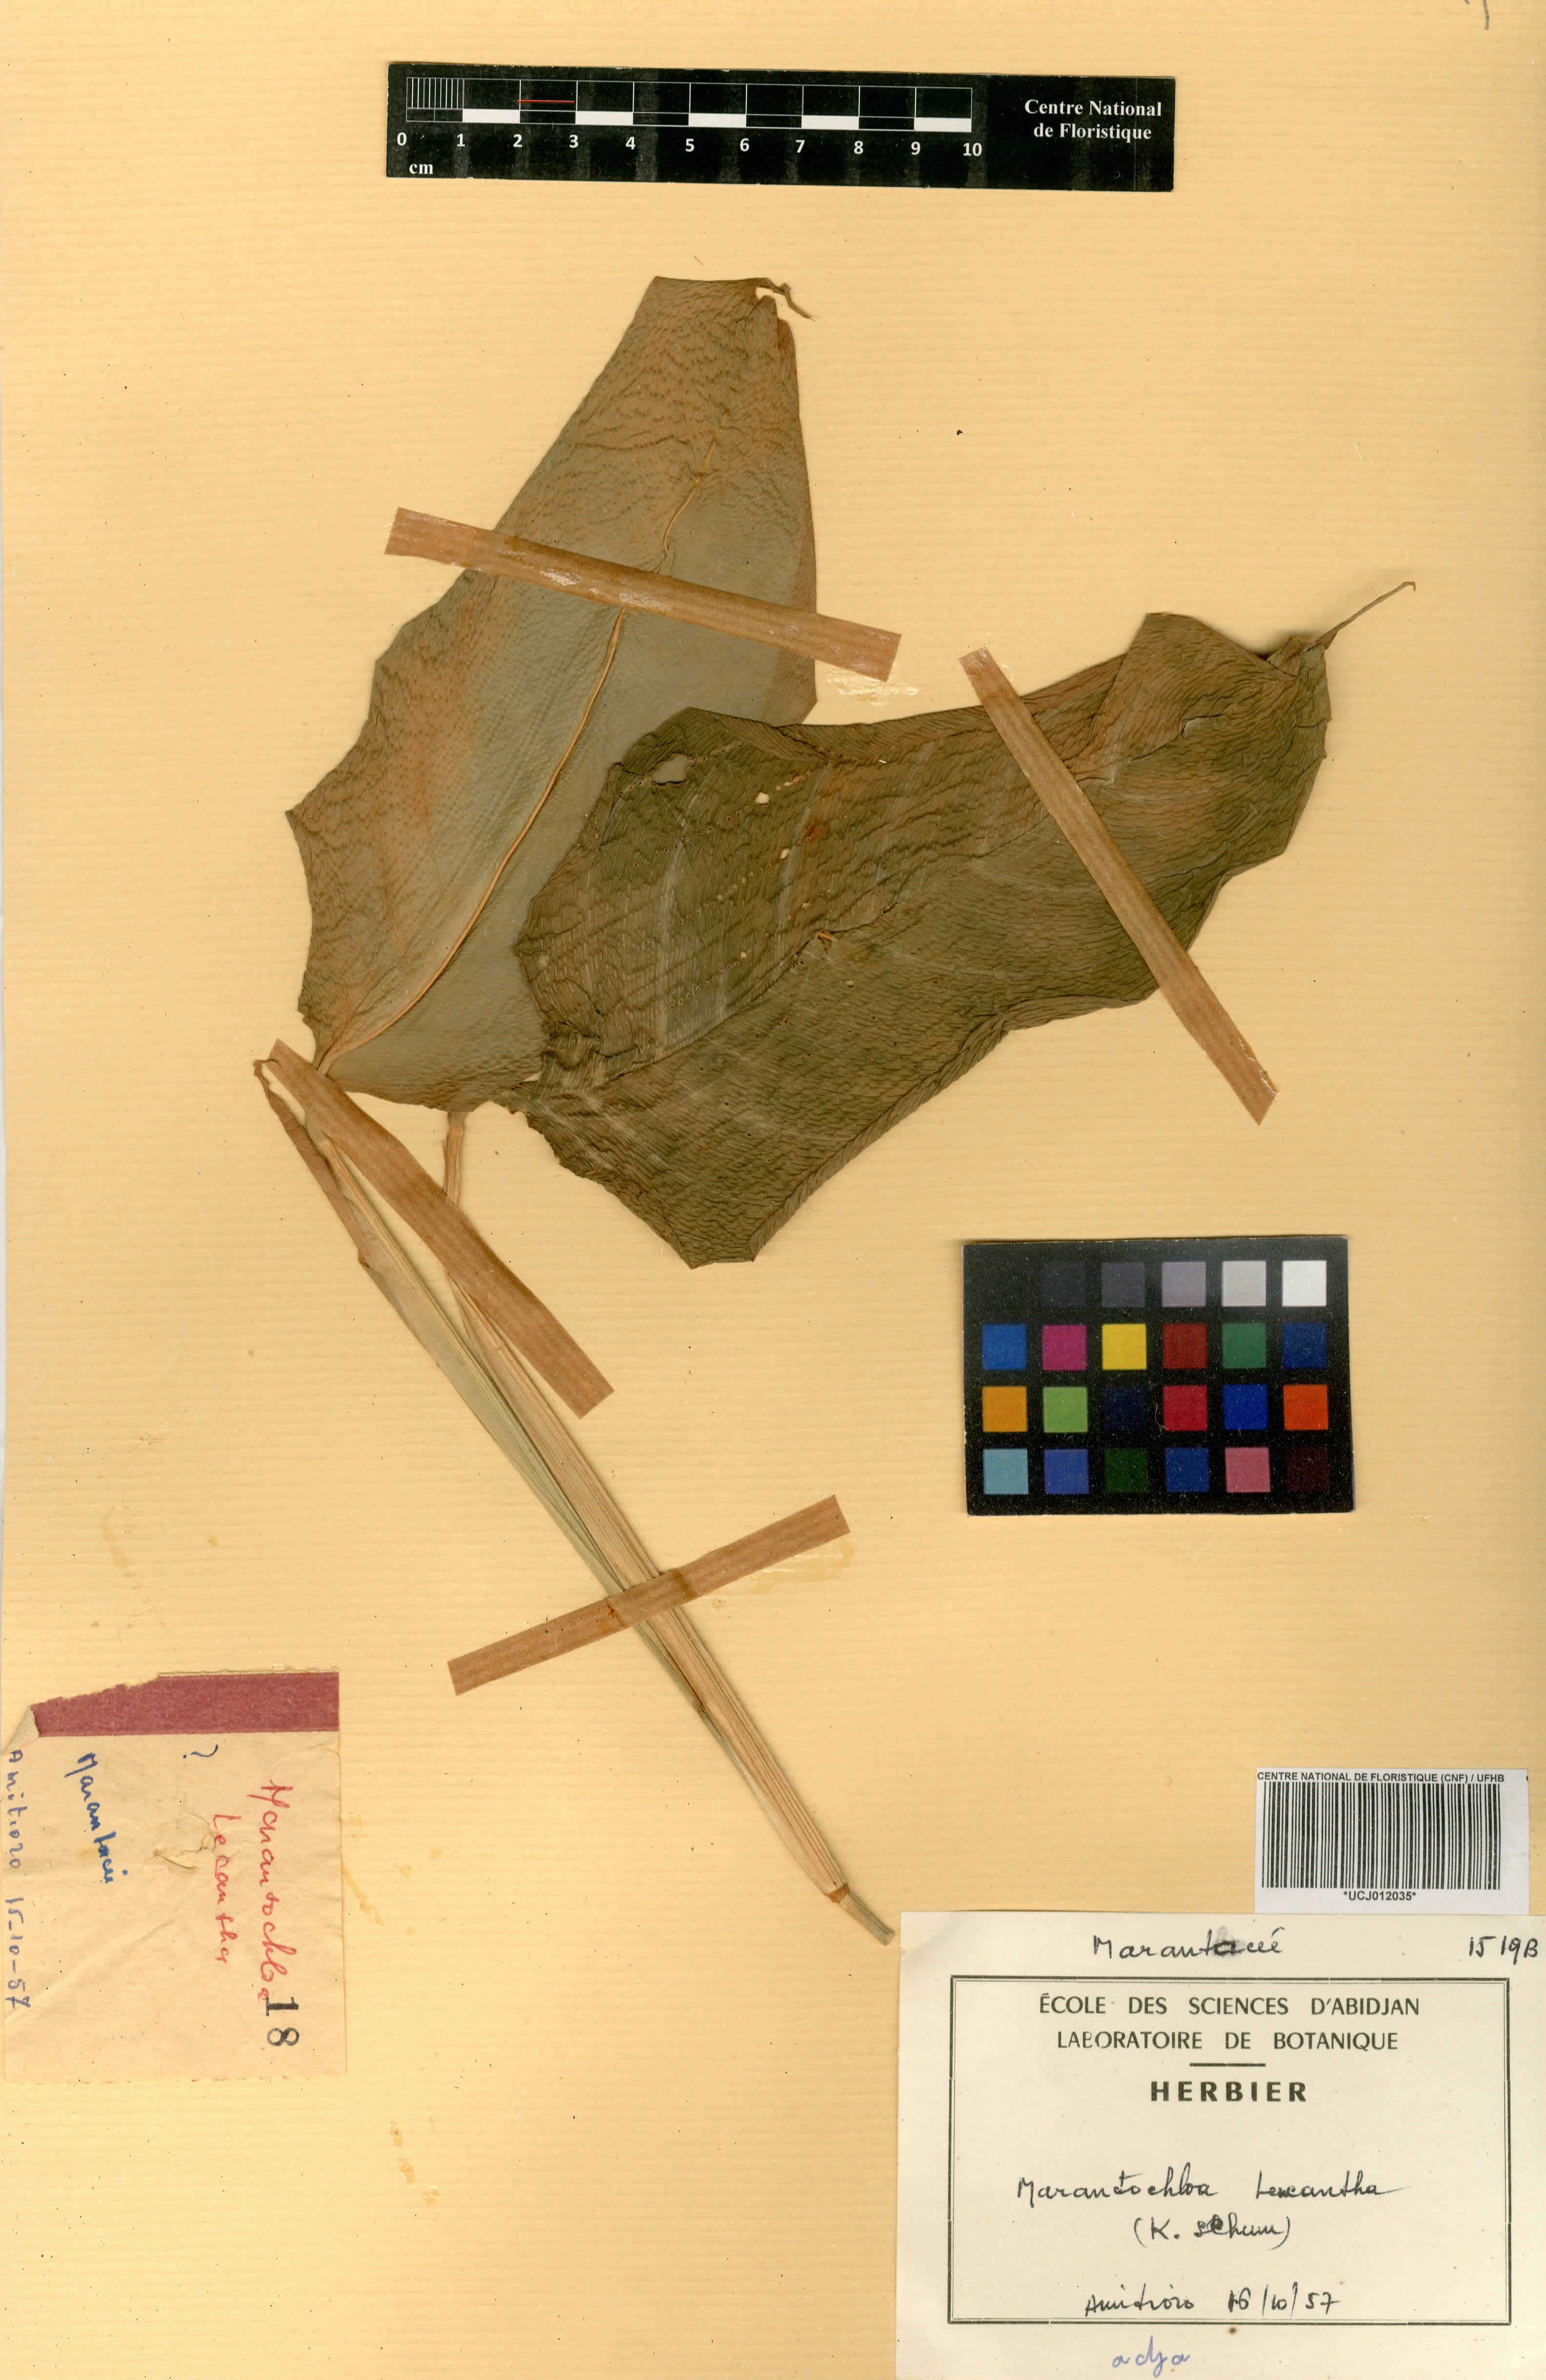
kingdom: Plantae
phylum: Tracheophyta
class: Liliopsida
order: Zingiberales
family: Marantaceae
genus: Marantochloa
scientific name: Marantochloa leucantha
